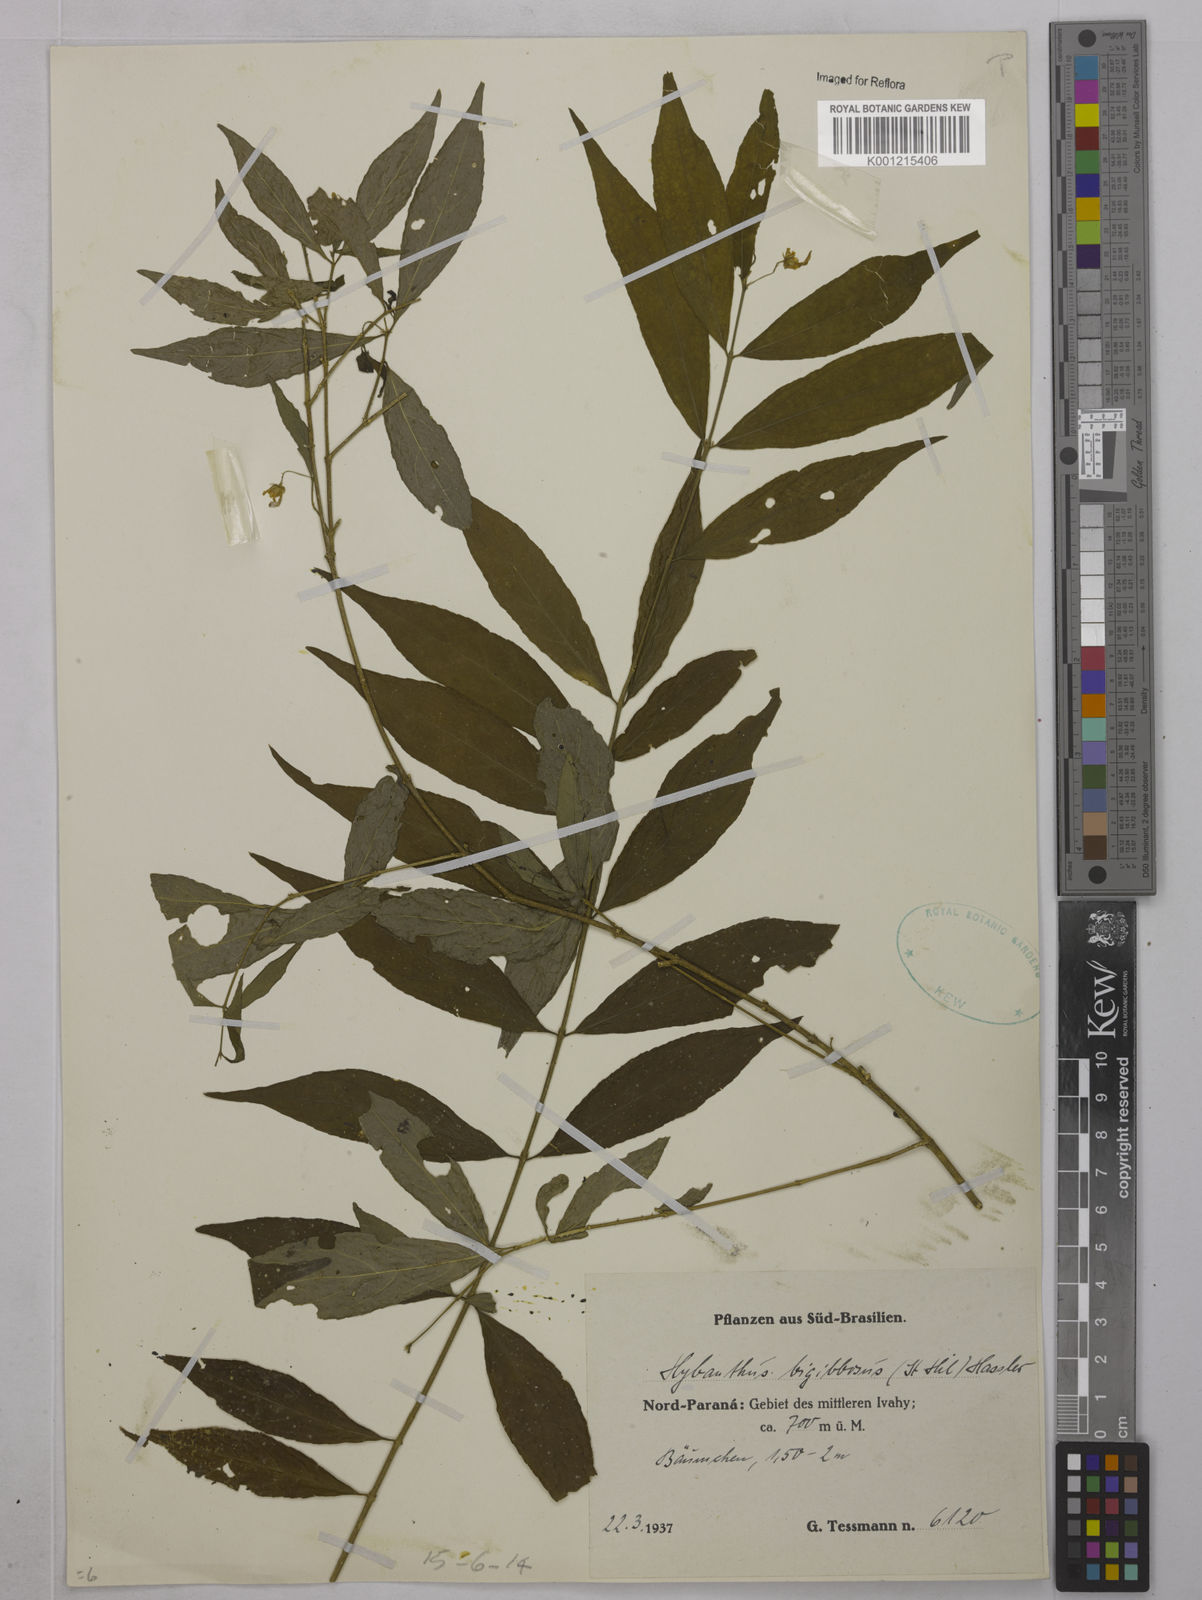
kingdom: Plantae
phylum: Tracheophyta
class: Magnoliopsida
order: Malpighiales
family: Violaceae
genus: Pombalia
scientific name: Pombalia bigibbosa
